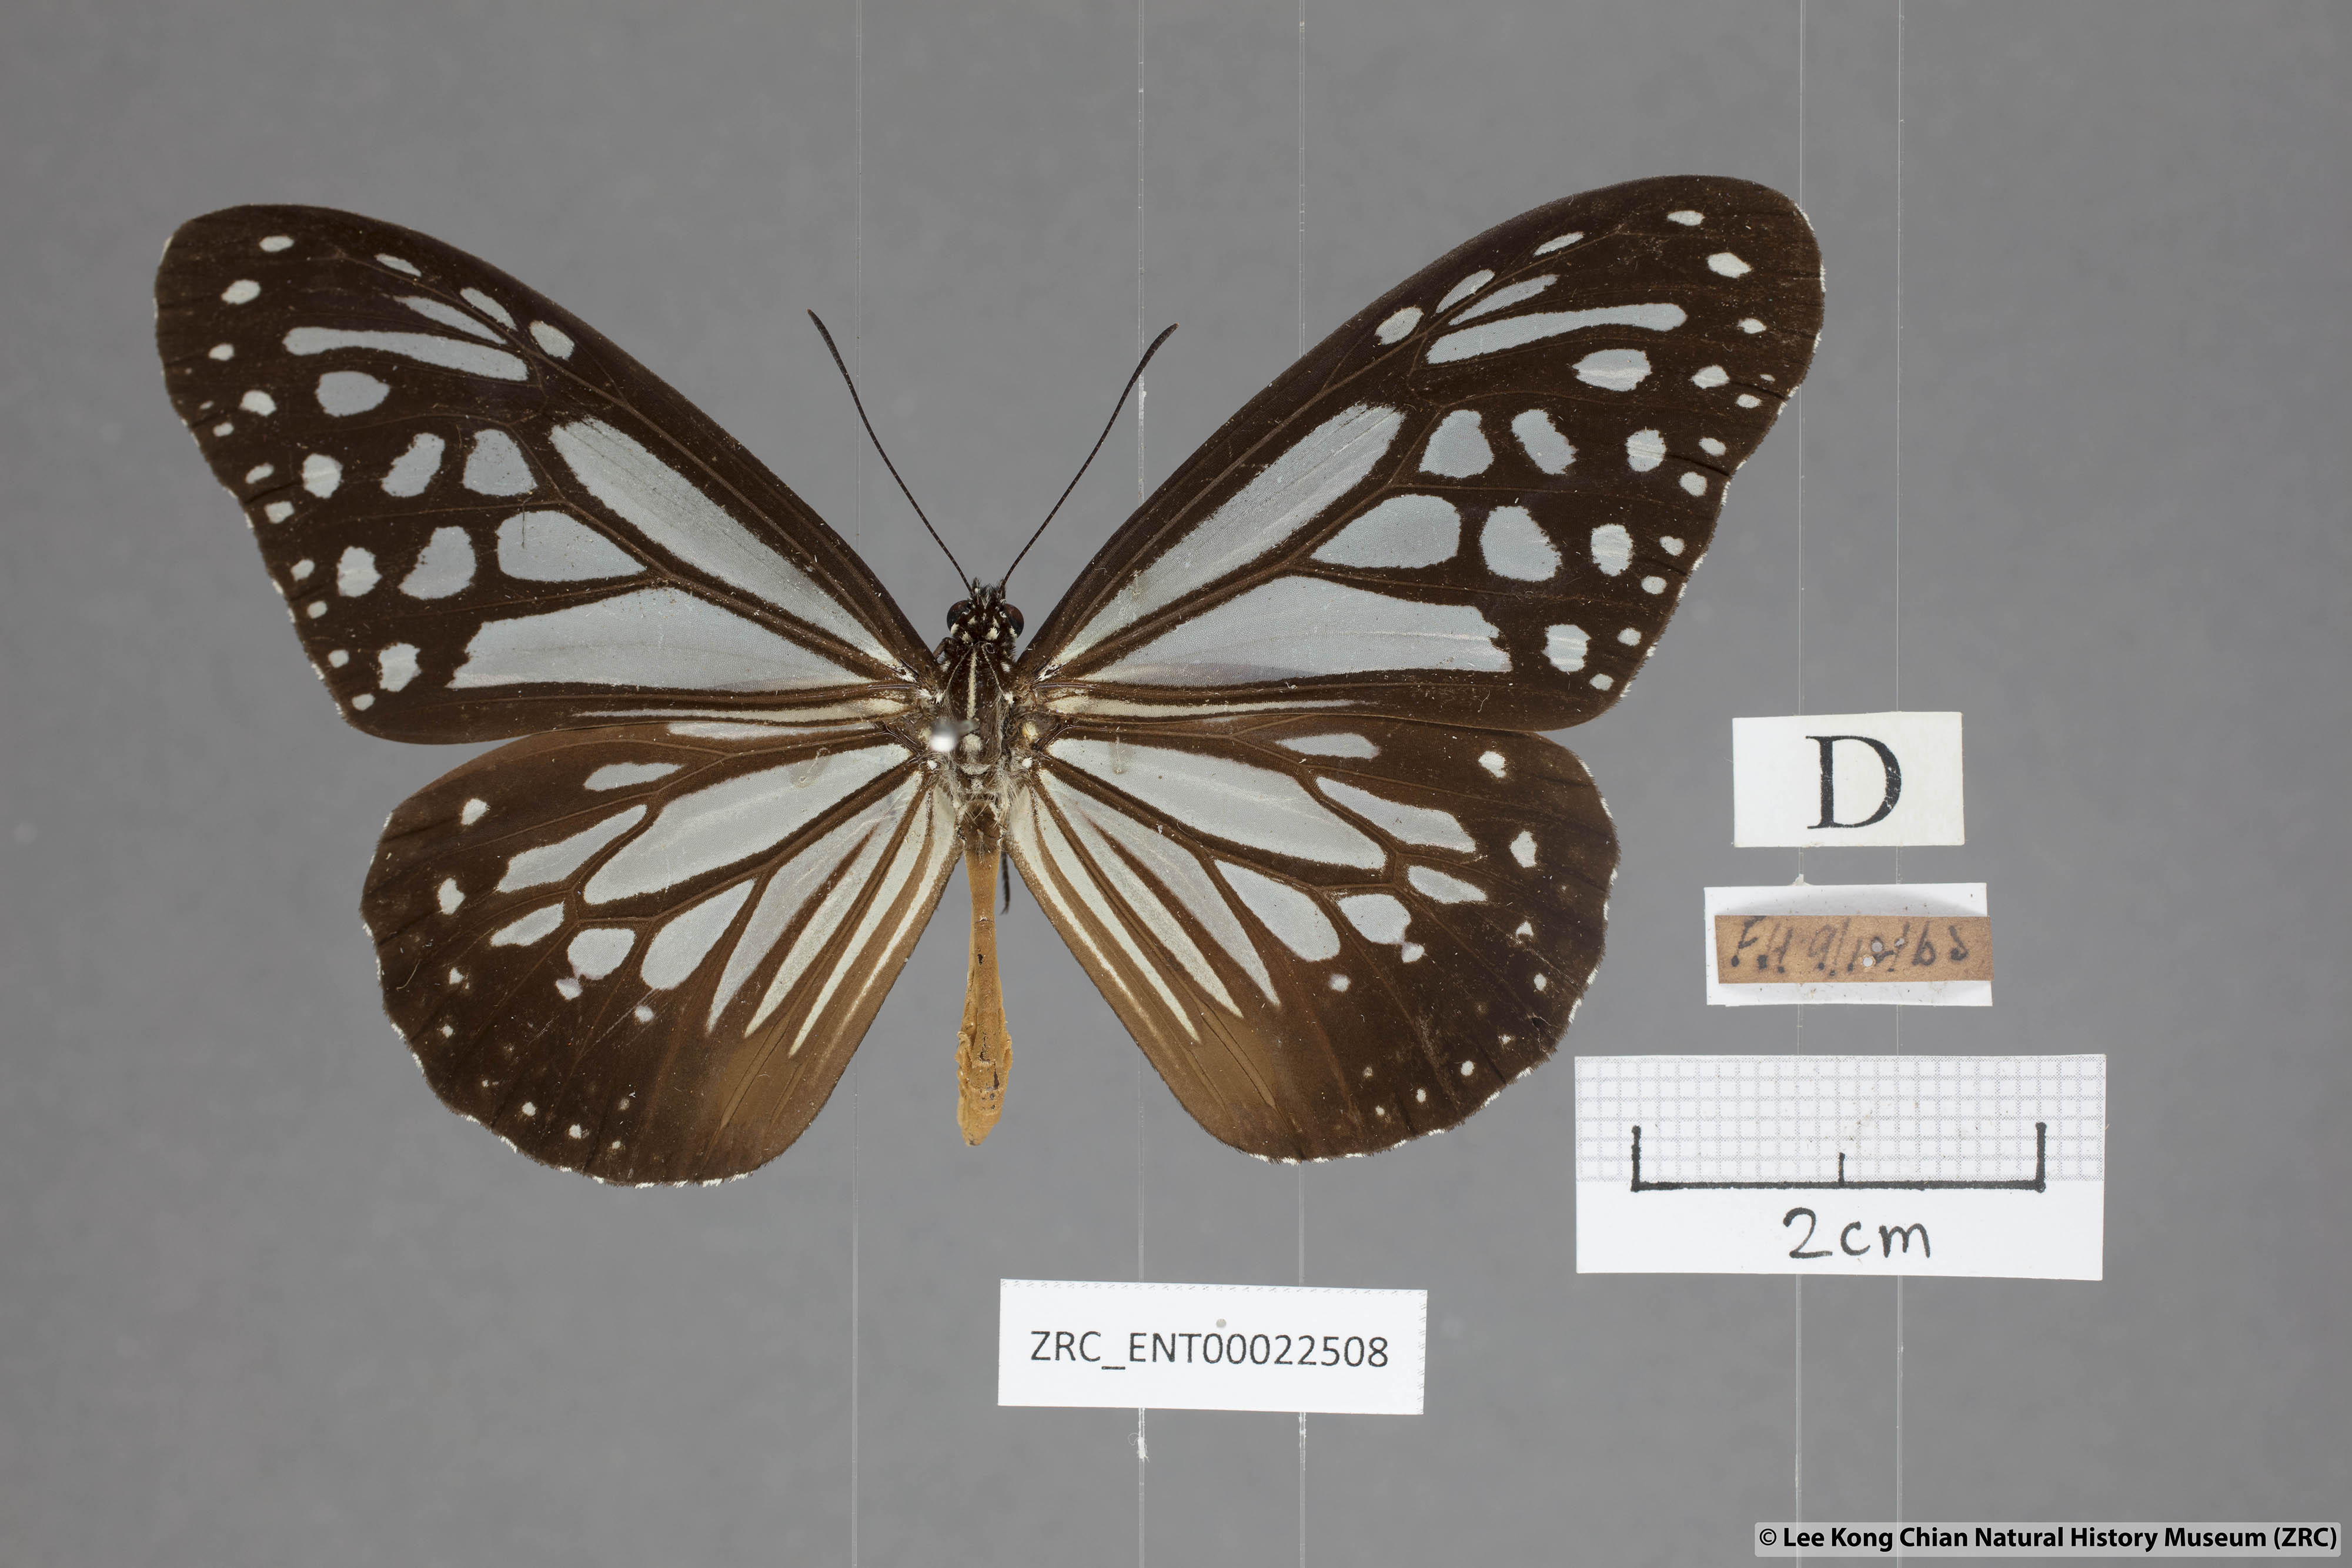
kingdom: Animalia
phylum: Arthropoda
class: Insecta
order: Lepidoptera
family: Nymphalidae
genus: Parantica
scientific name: Parantica melaneus
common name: Chocolate tiger
